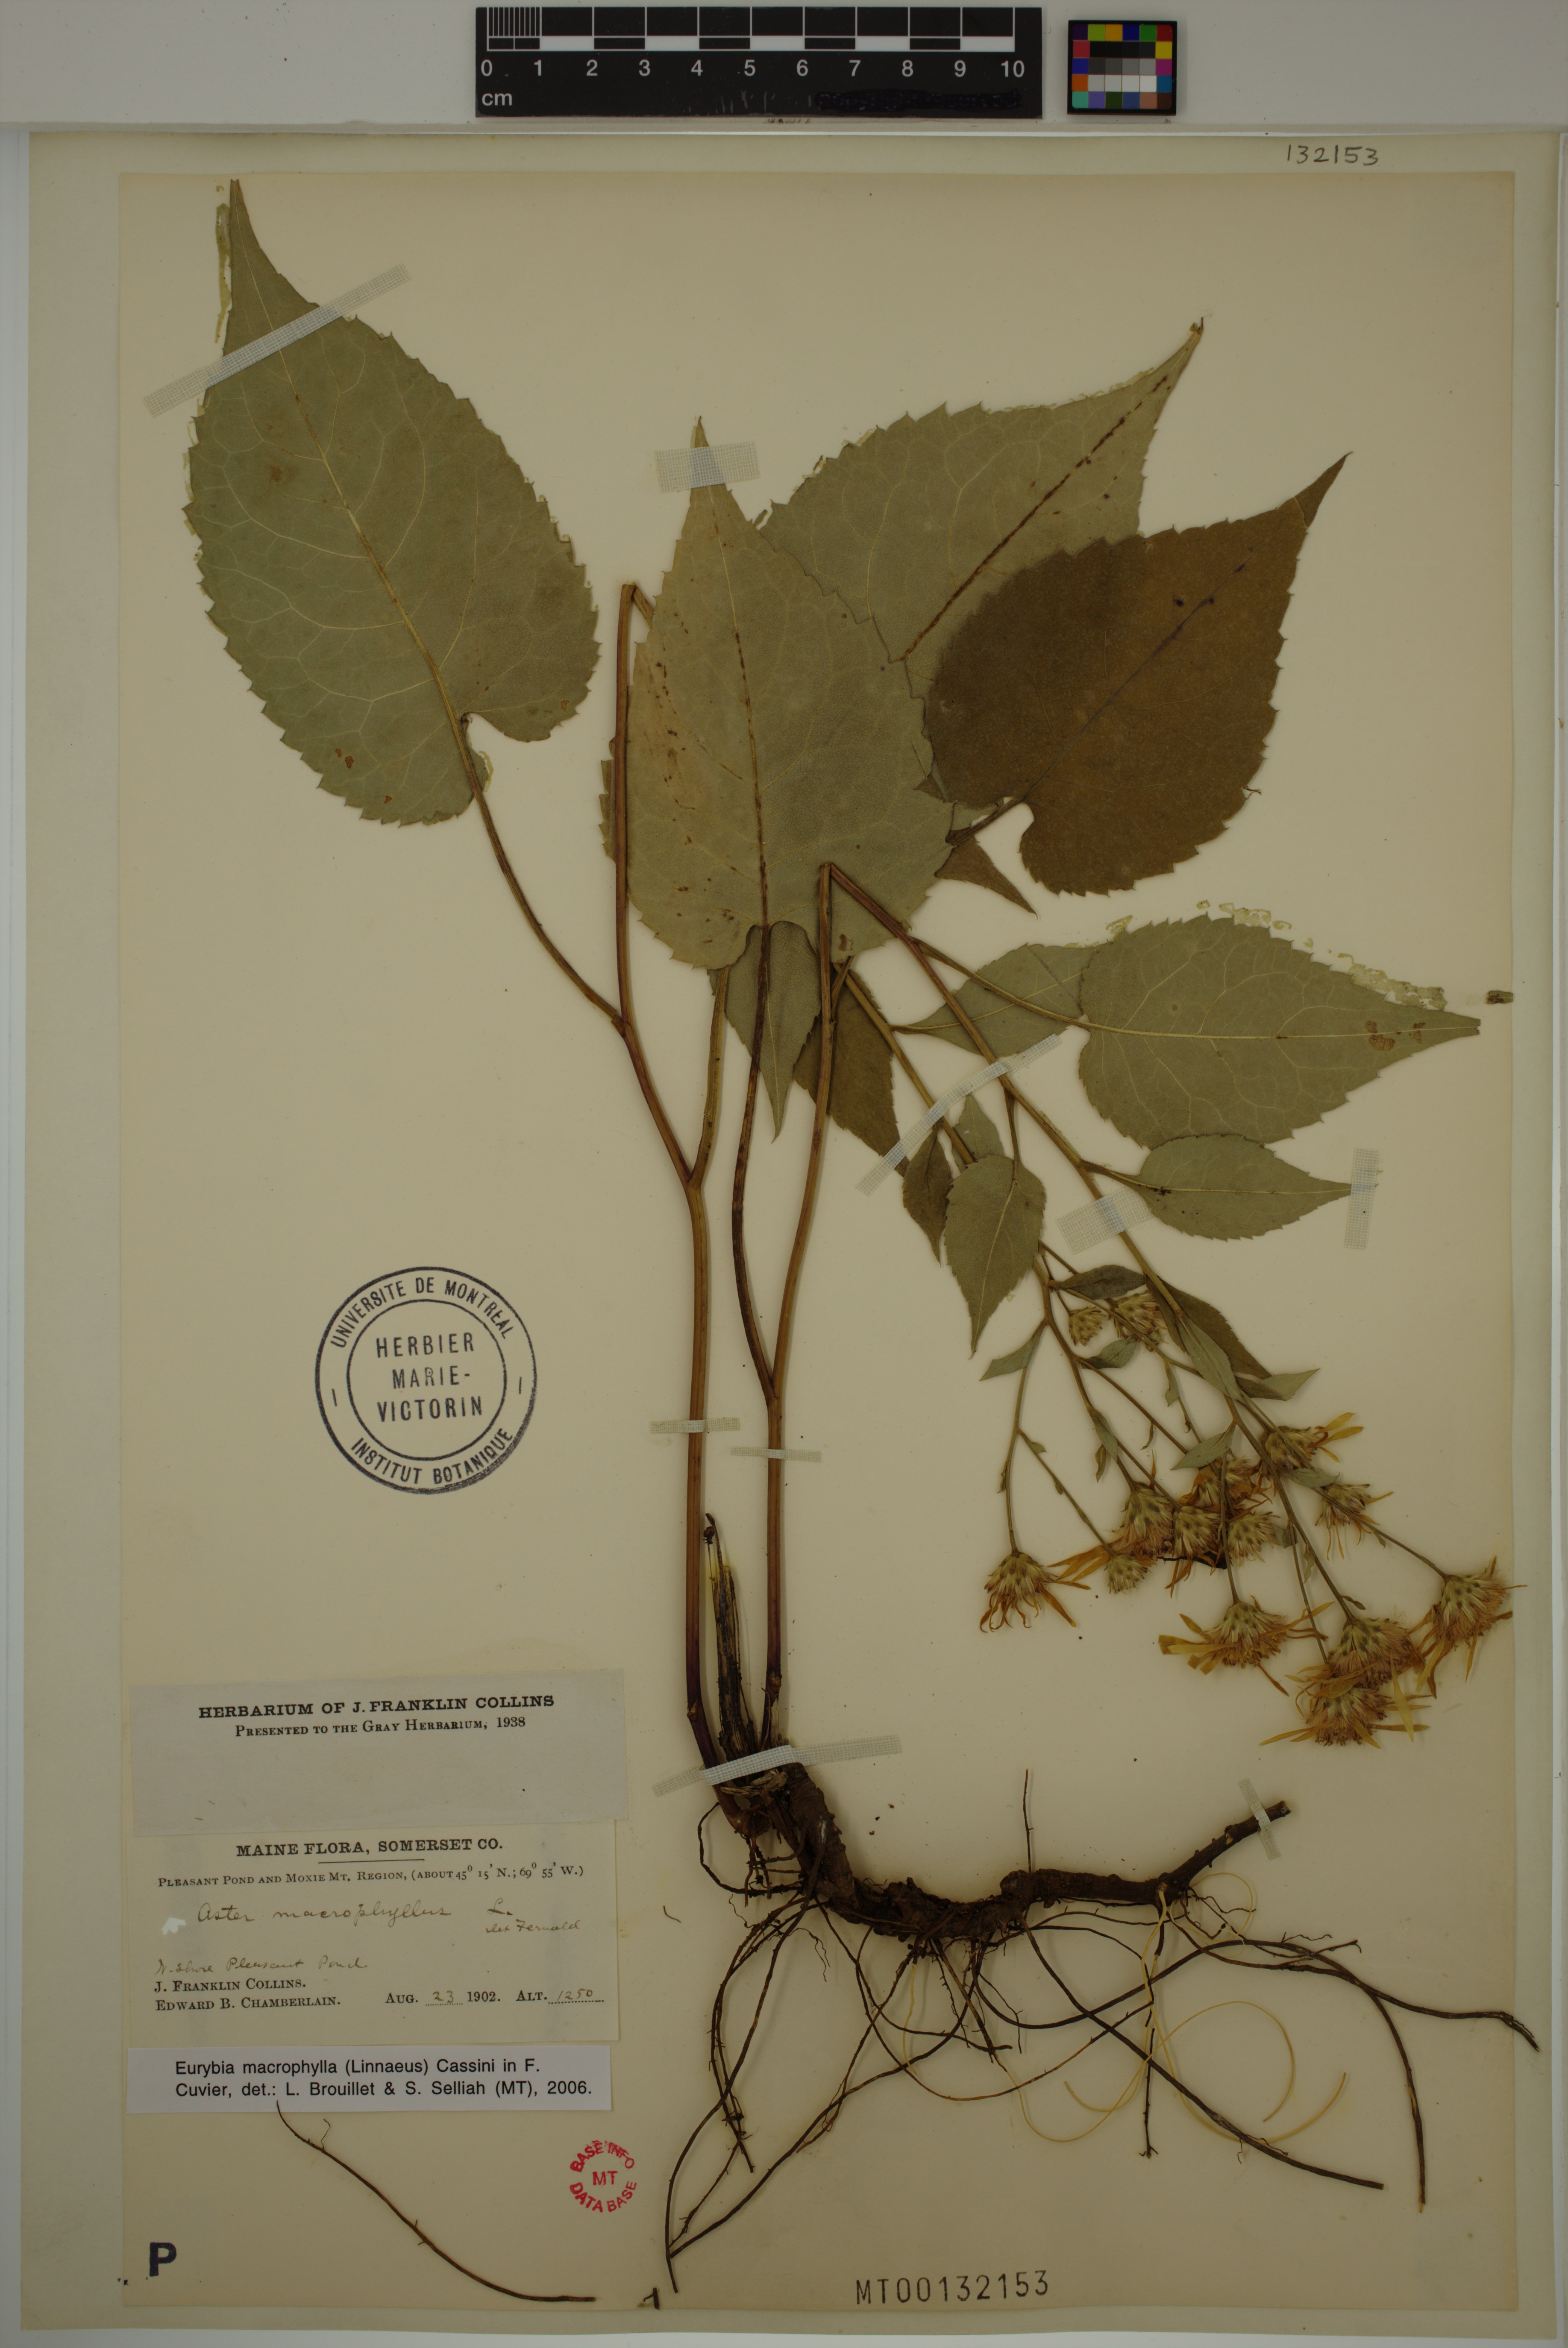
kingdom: Plantae
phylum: Tracheophyta
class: Magnoliopsida
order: Asterales
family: Asteraceae
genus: Eurybia
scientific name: Eurybia macrophylla
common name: Big-leaved aster
